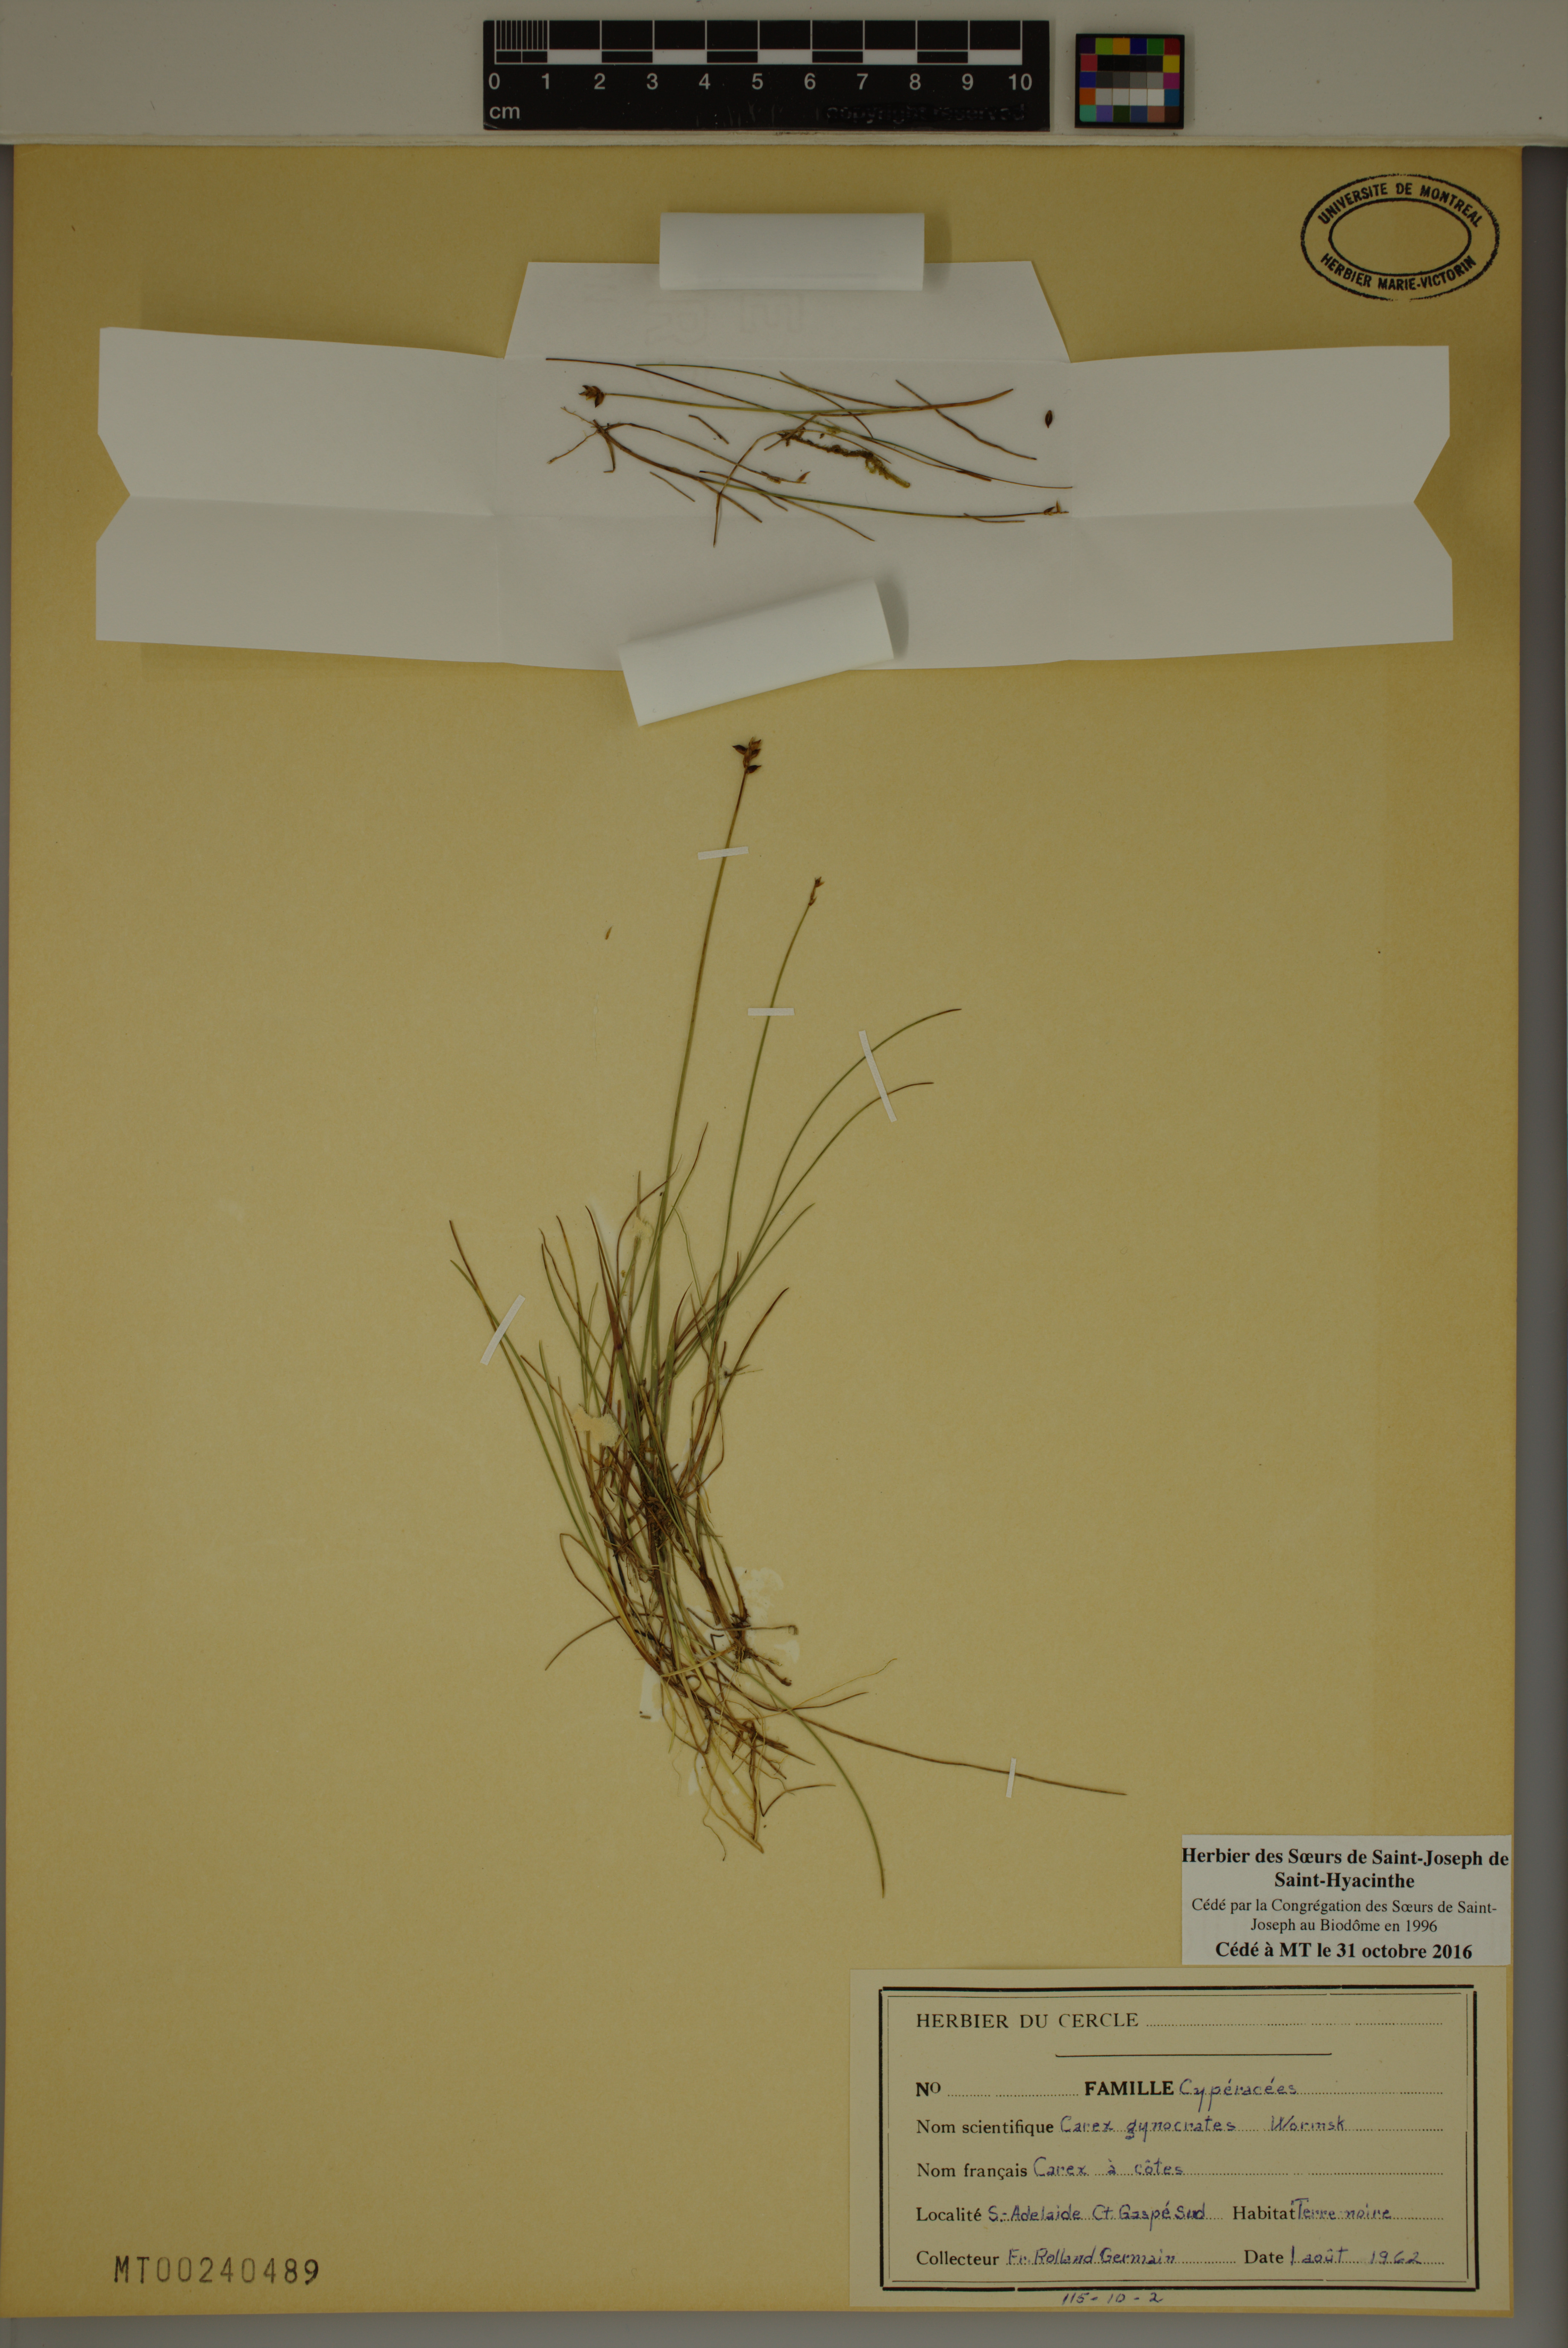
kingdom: Plantae
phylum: Tracheophyta
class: Liliopsida
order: Poales
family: Cyperaceae
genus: Carex
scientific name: Carex nardina
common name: Nard sedge
